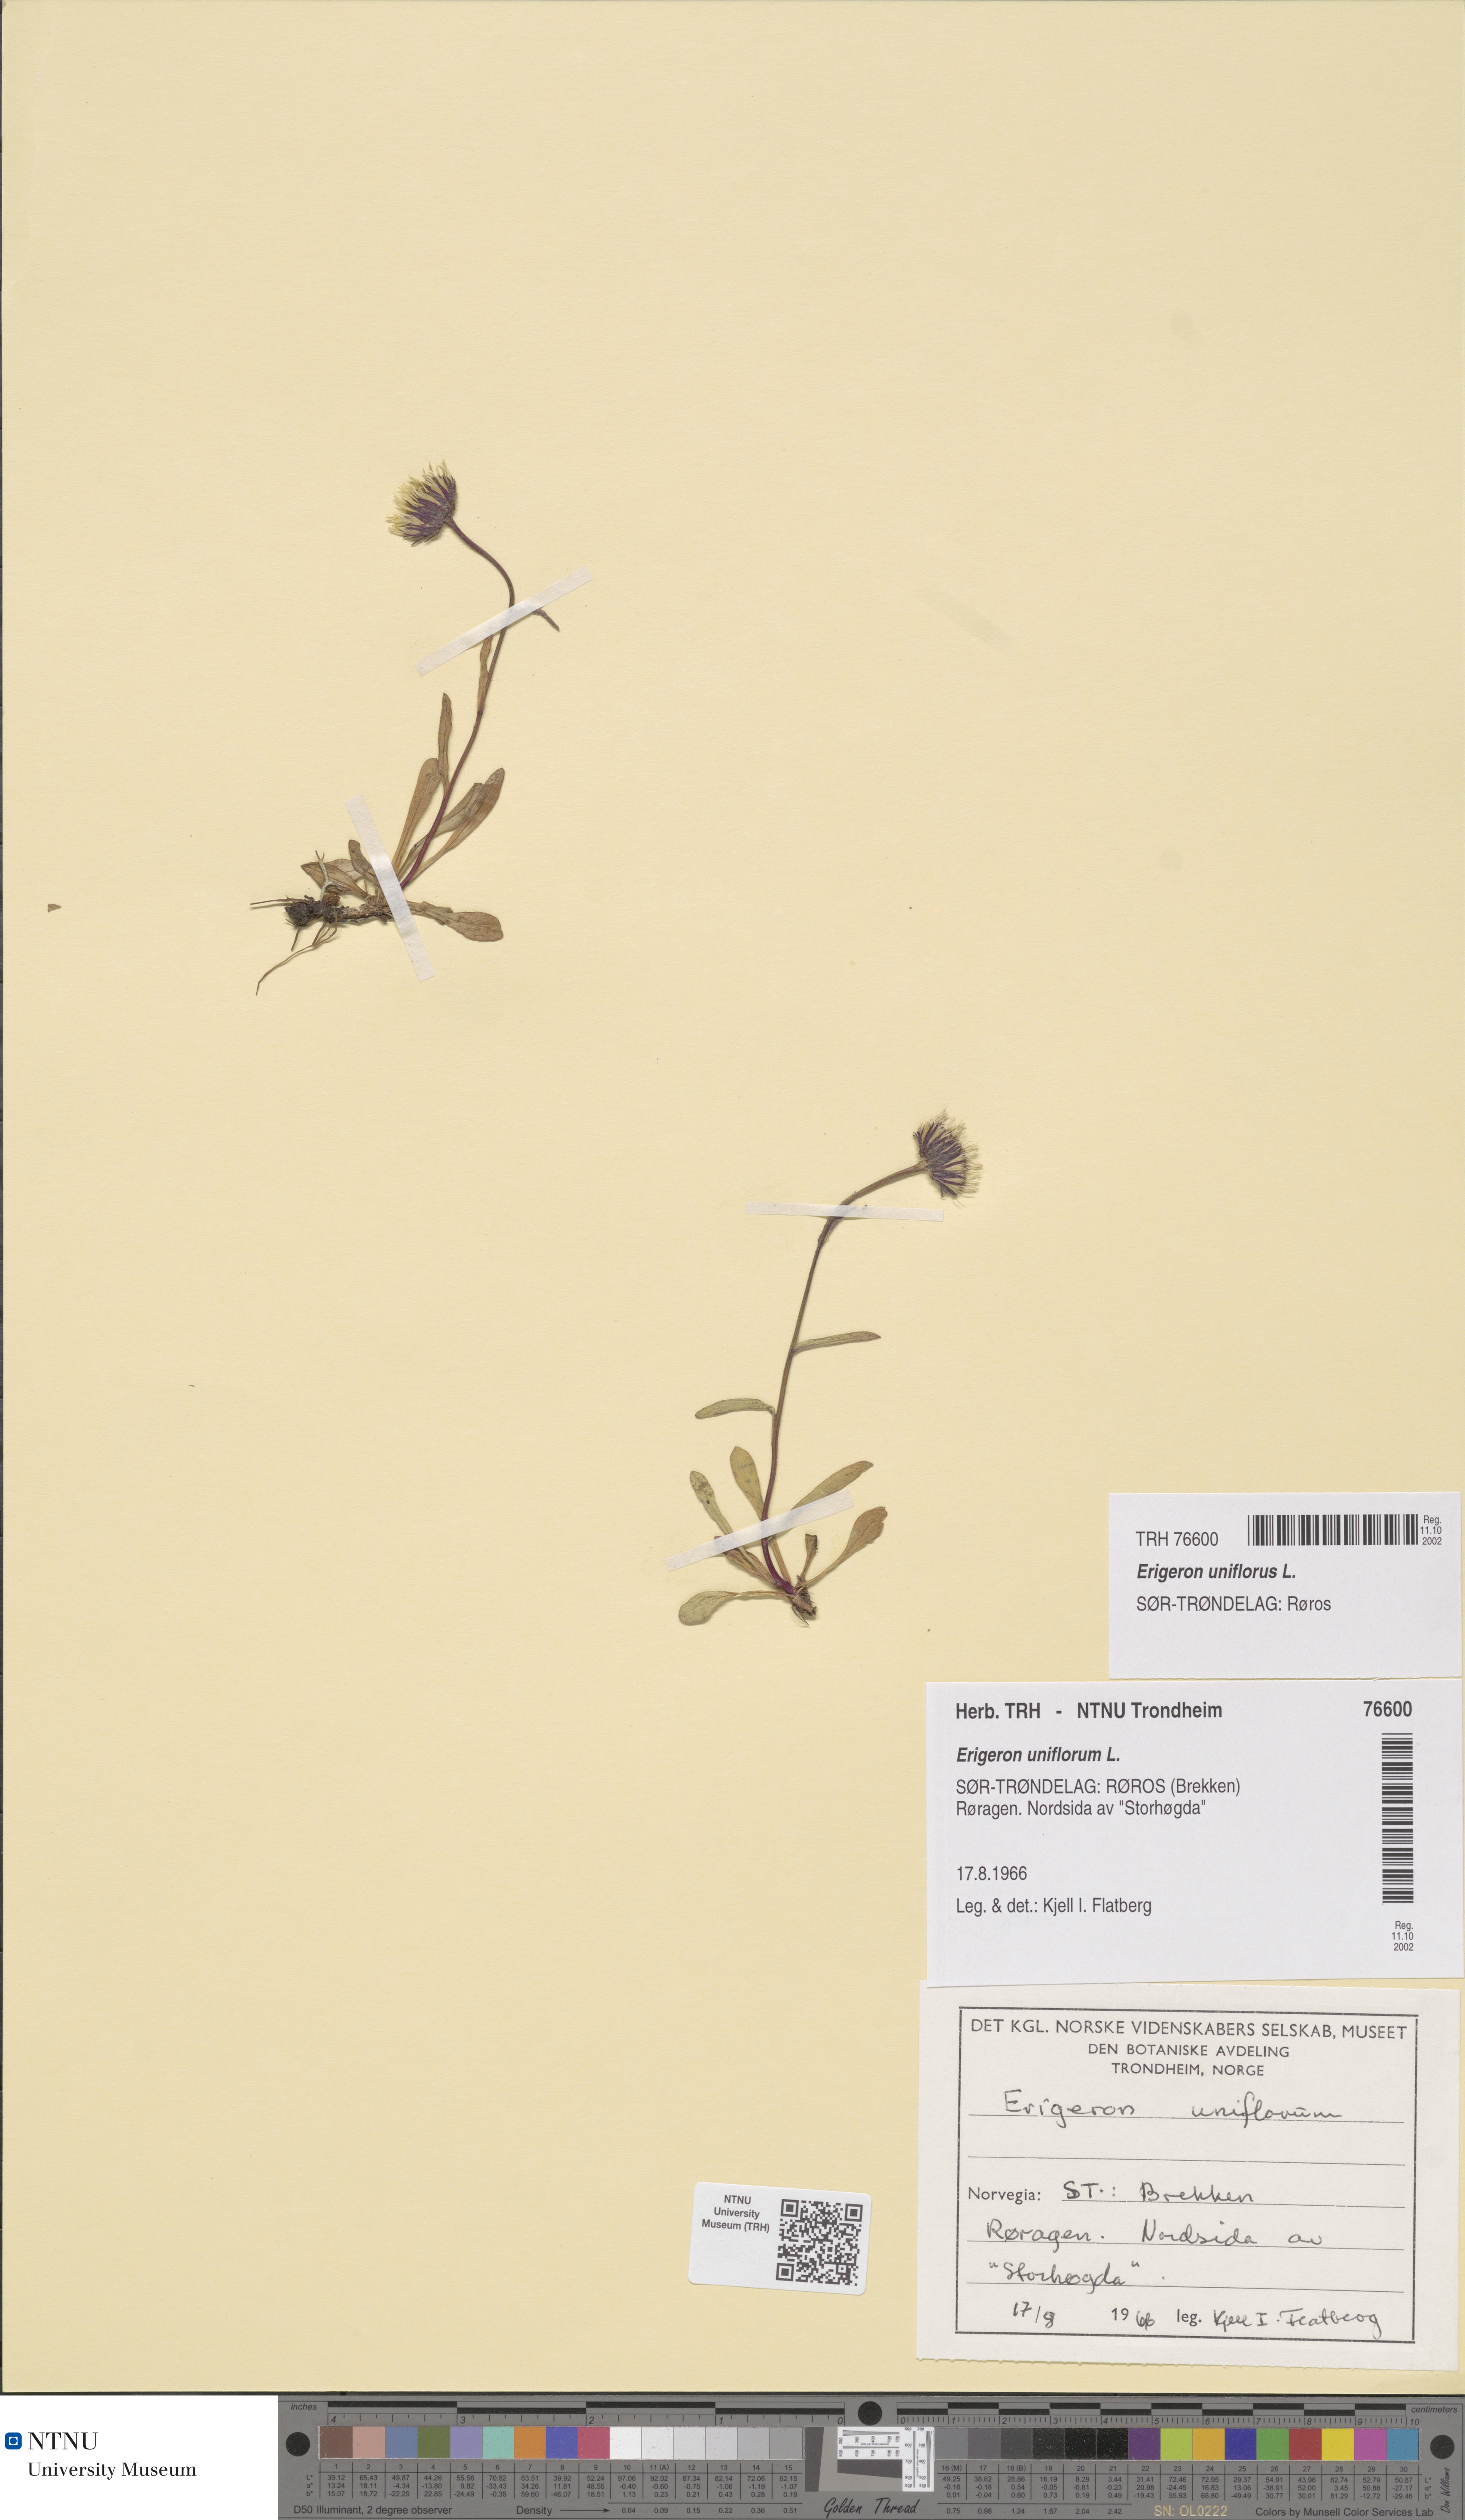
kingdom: Plantae
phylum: Tracheophyta
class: Magnoliopsida
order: Asterales
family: Asteraceae
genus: Erigeron
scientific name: Erigeron uniflorus
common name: Northern daisy
